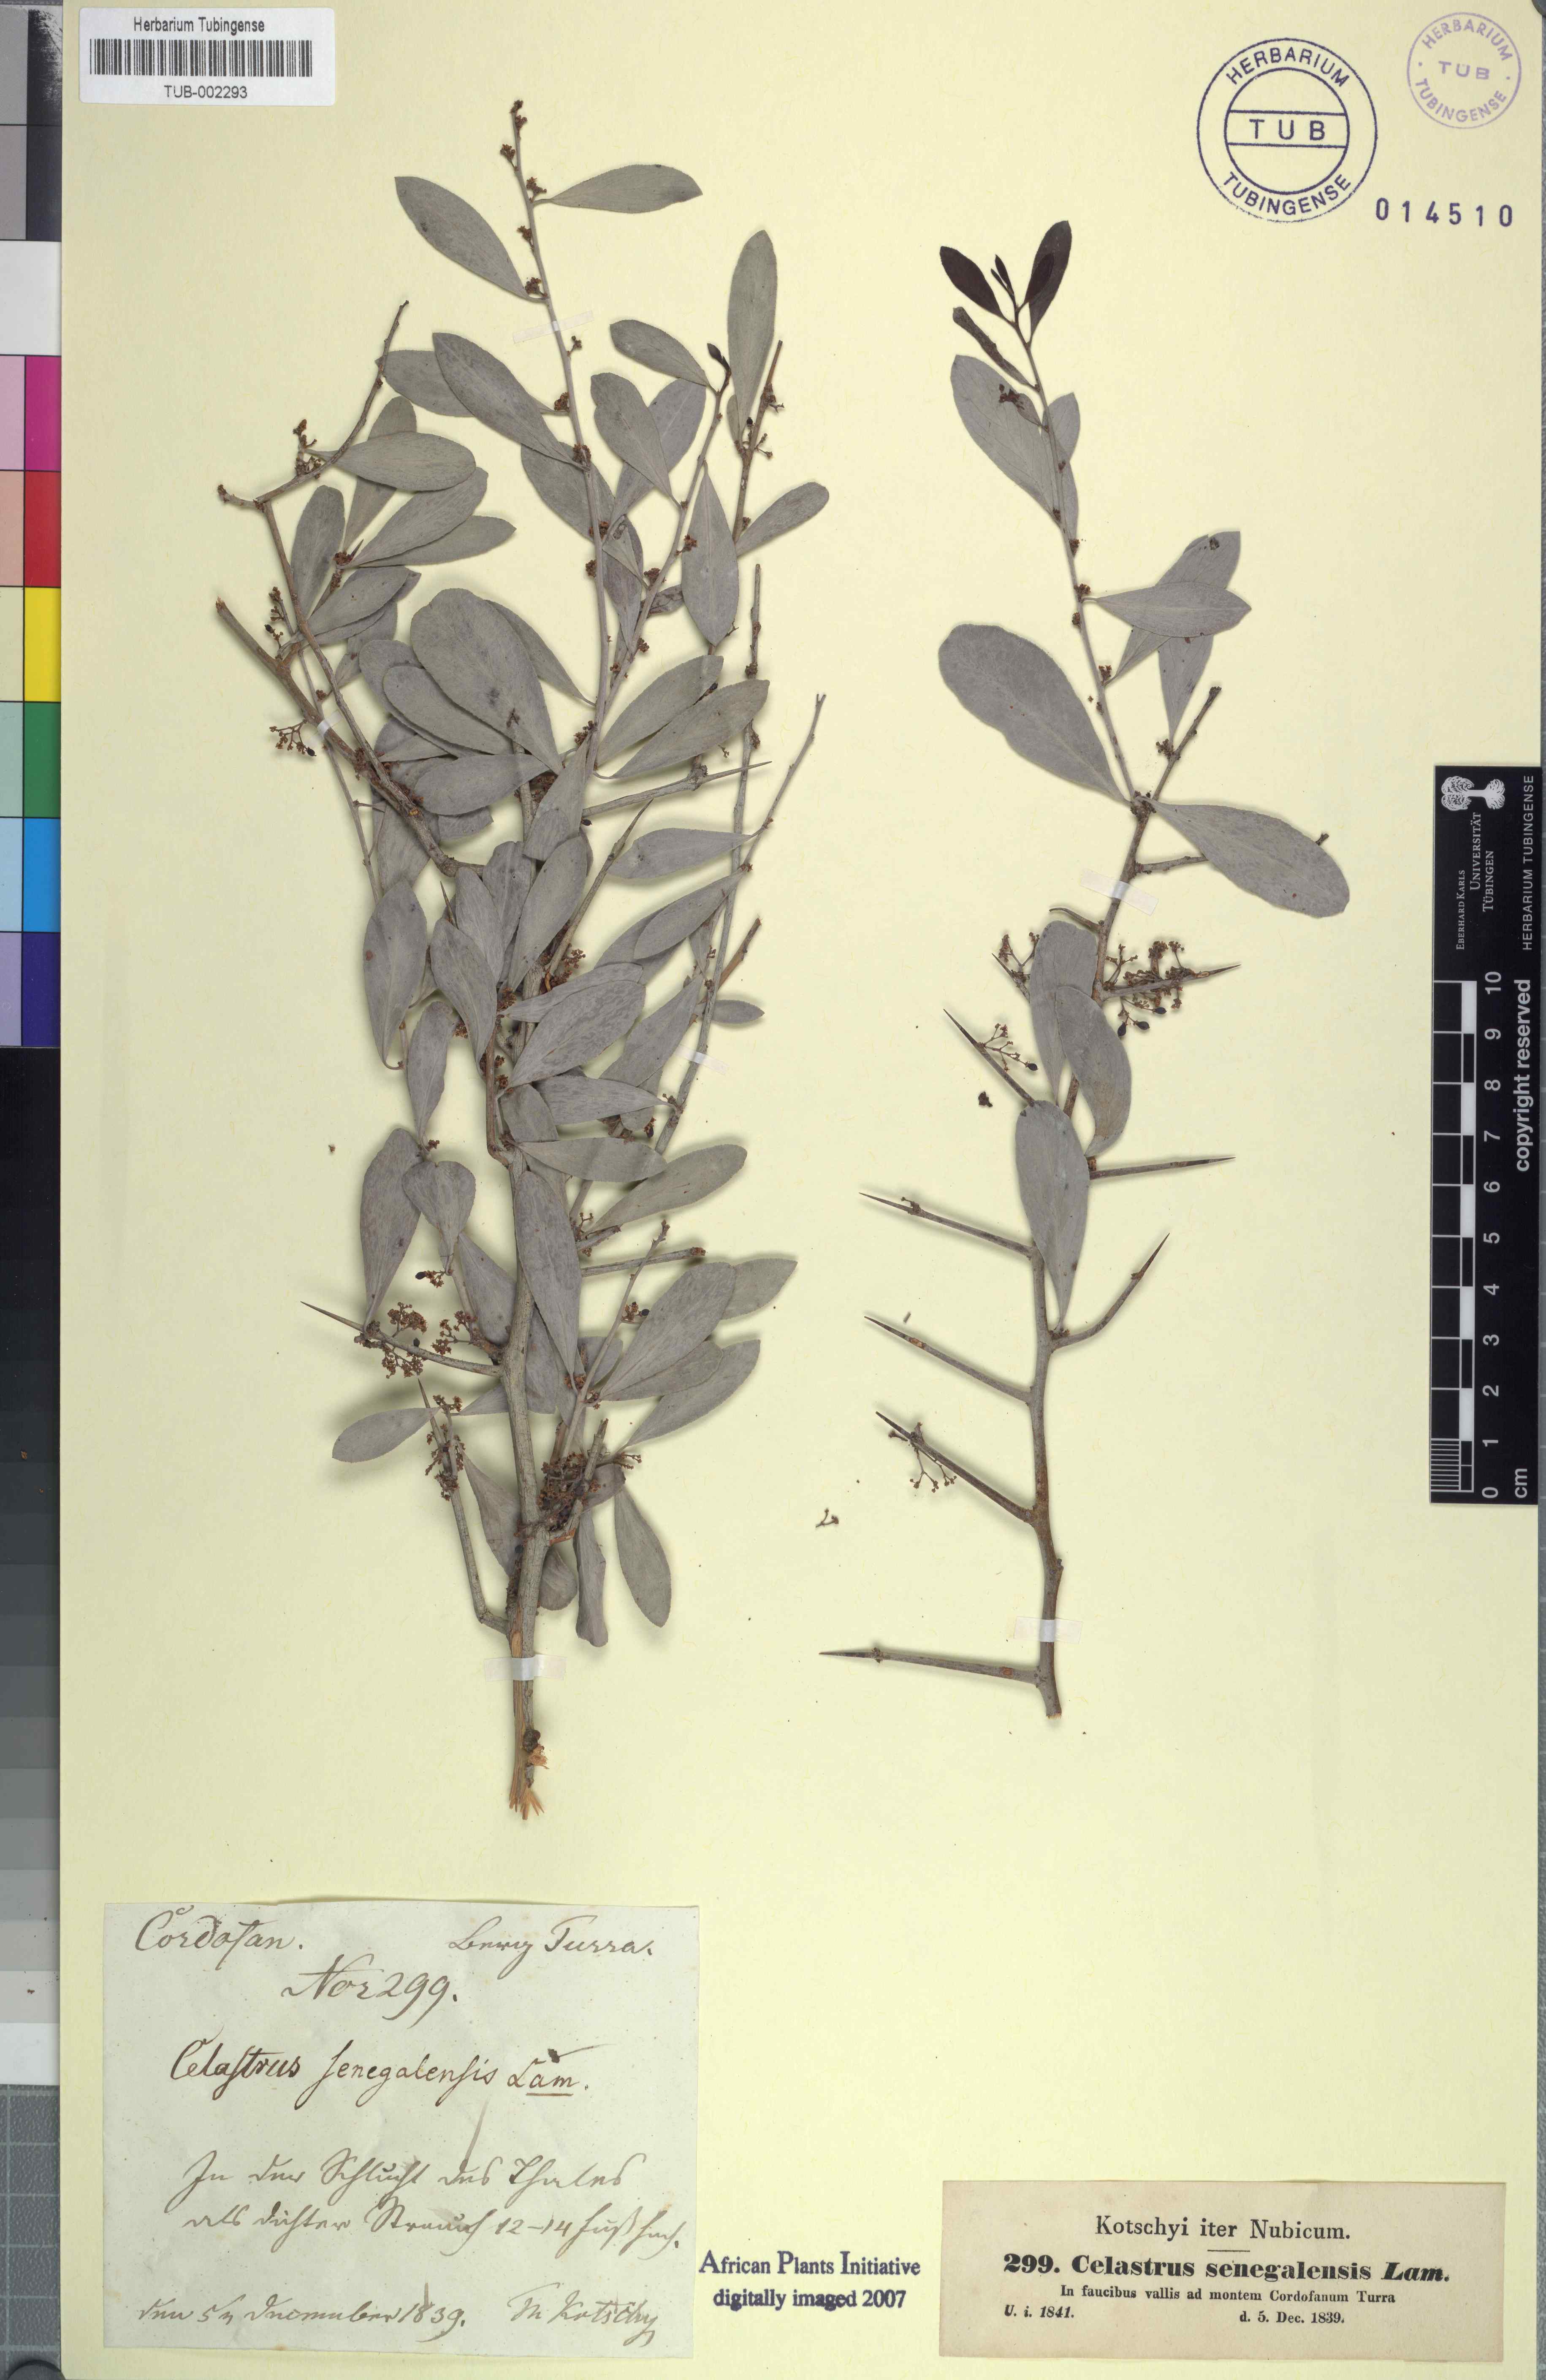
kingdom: Plantae
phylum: Tracheophyta
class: Magnoliopsida
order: Celastrales
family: Celastraceae
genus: Gymnosporia
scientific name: Gymnosporia senegalensis
